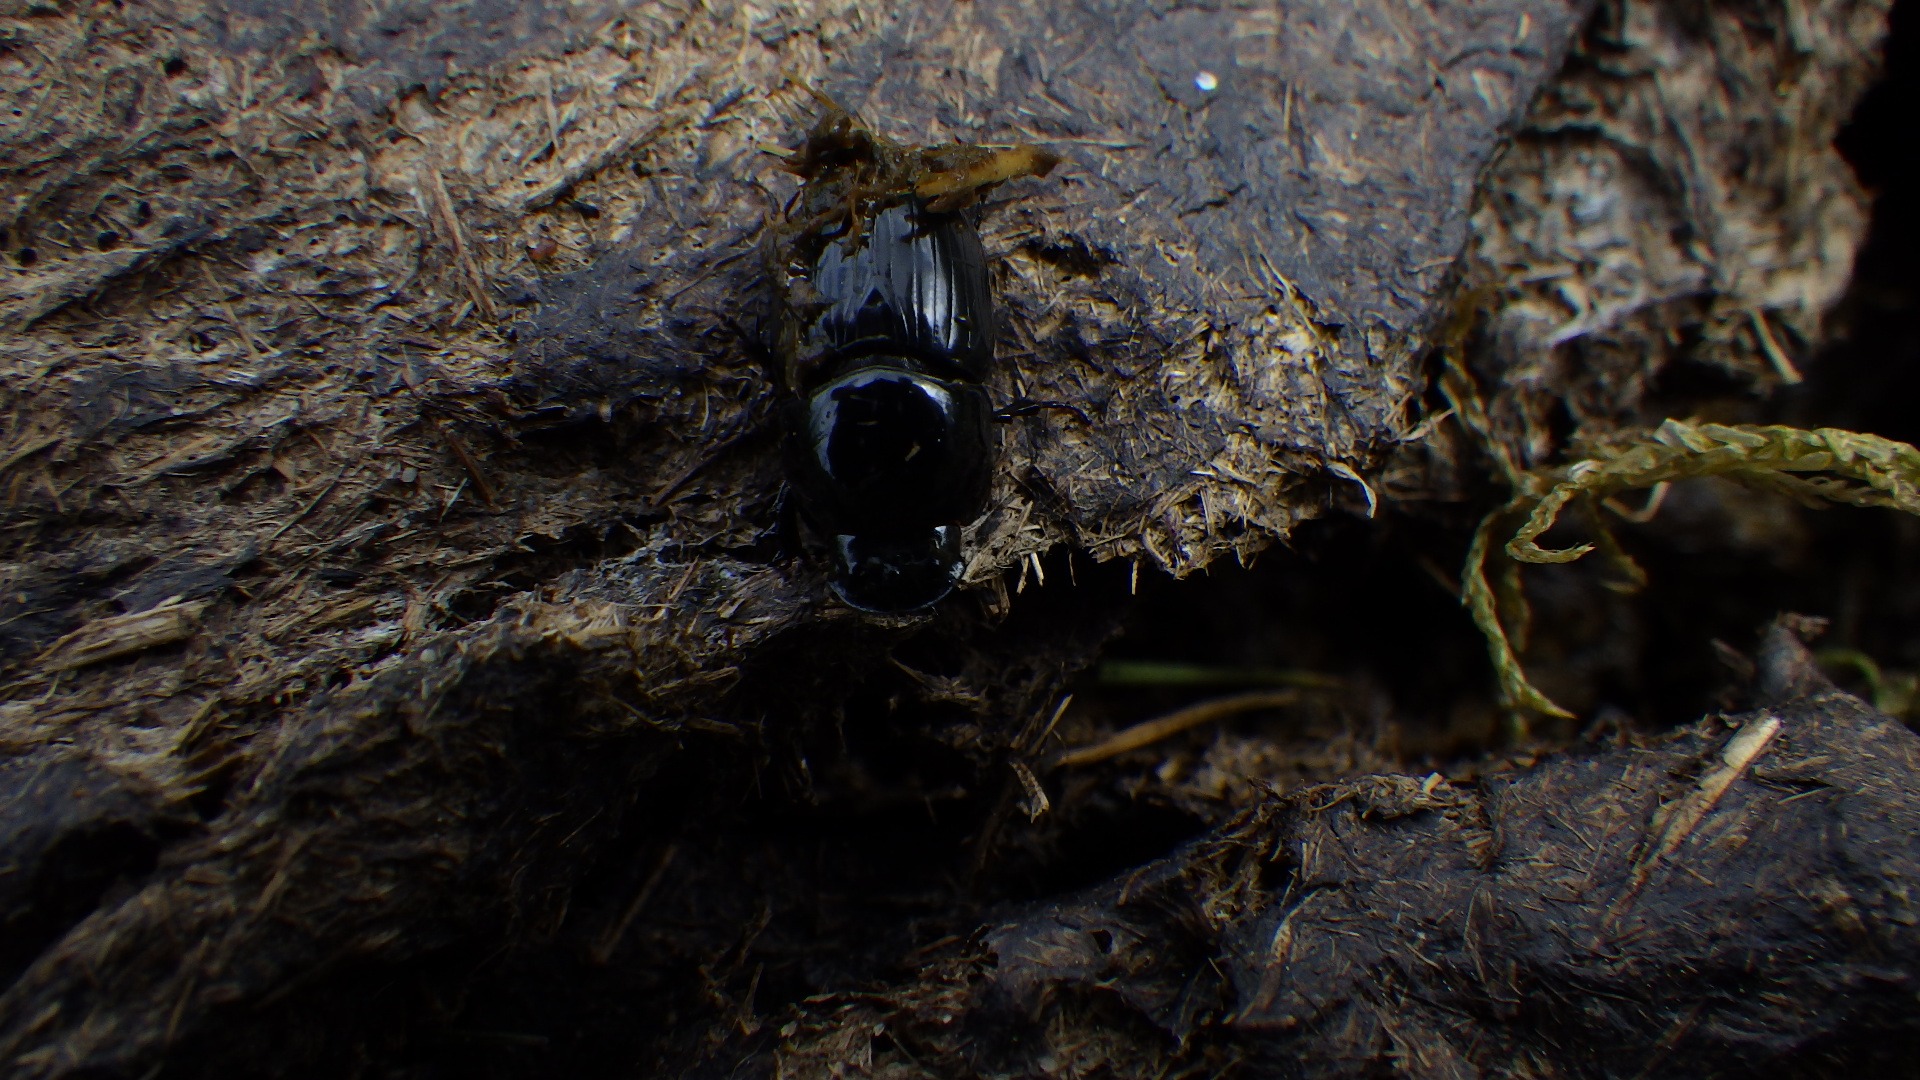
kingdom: Animalia
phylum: Arthropoda
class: Insecta
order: Coleoptera
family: Scarabaeidae
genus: Teuchestes
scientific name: Teuchestes fossor
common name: Stor møgbille
